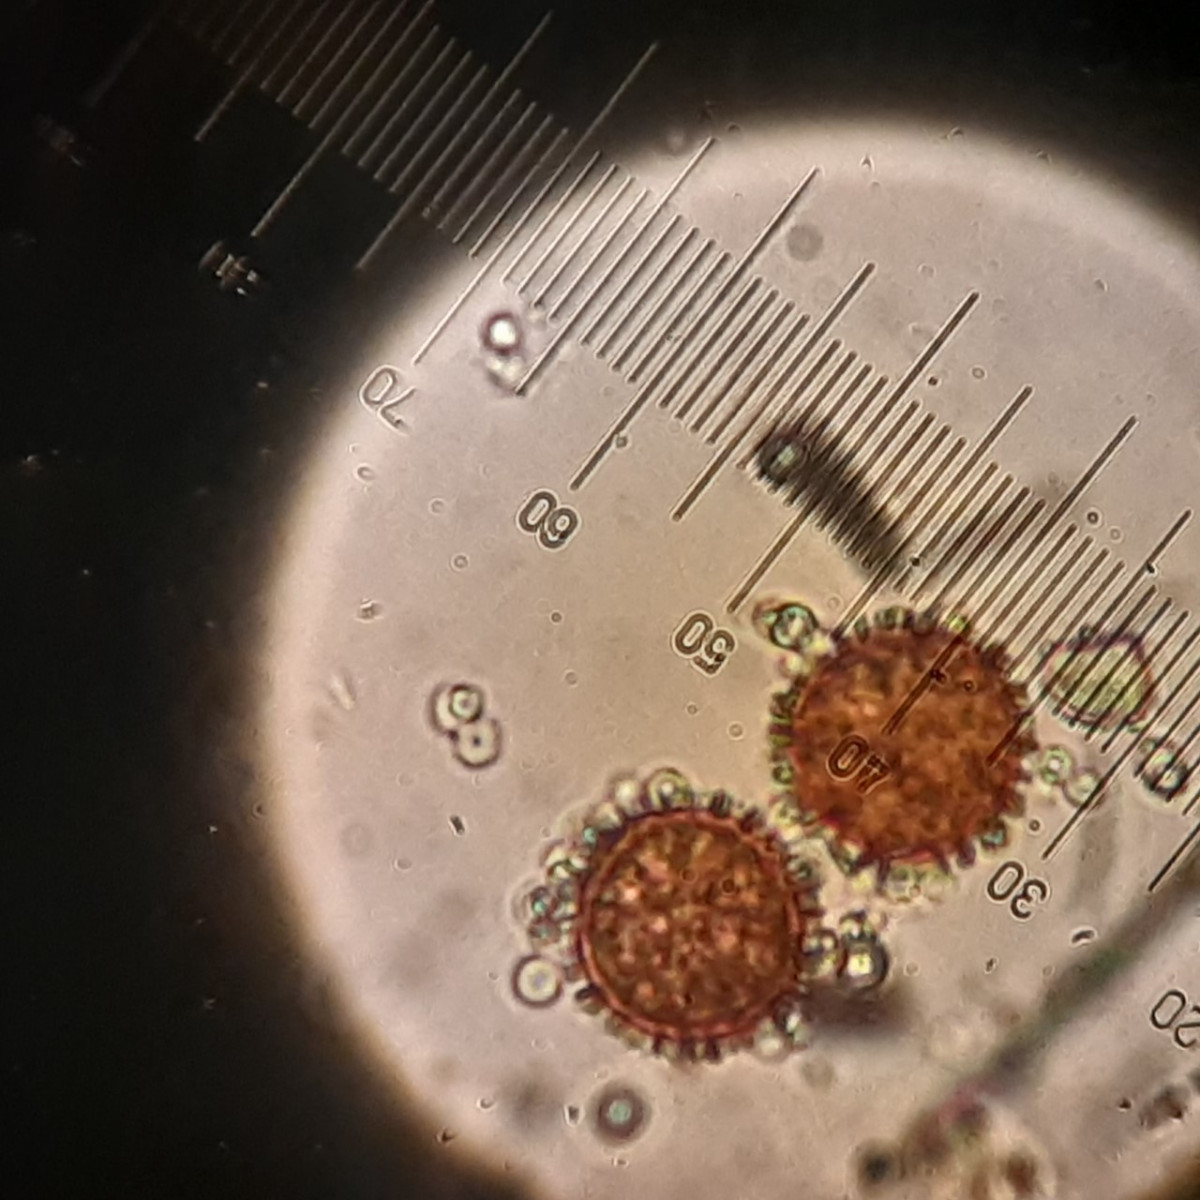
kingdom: Protozoa
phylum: Mycetozoa
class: Myxomycetes
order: Physarales
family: Physaraceae
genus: Physarum
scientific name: Physarum schroeteri
